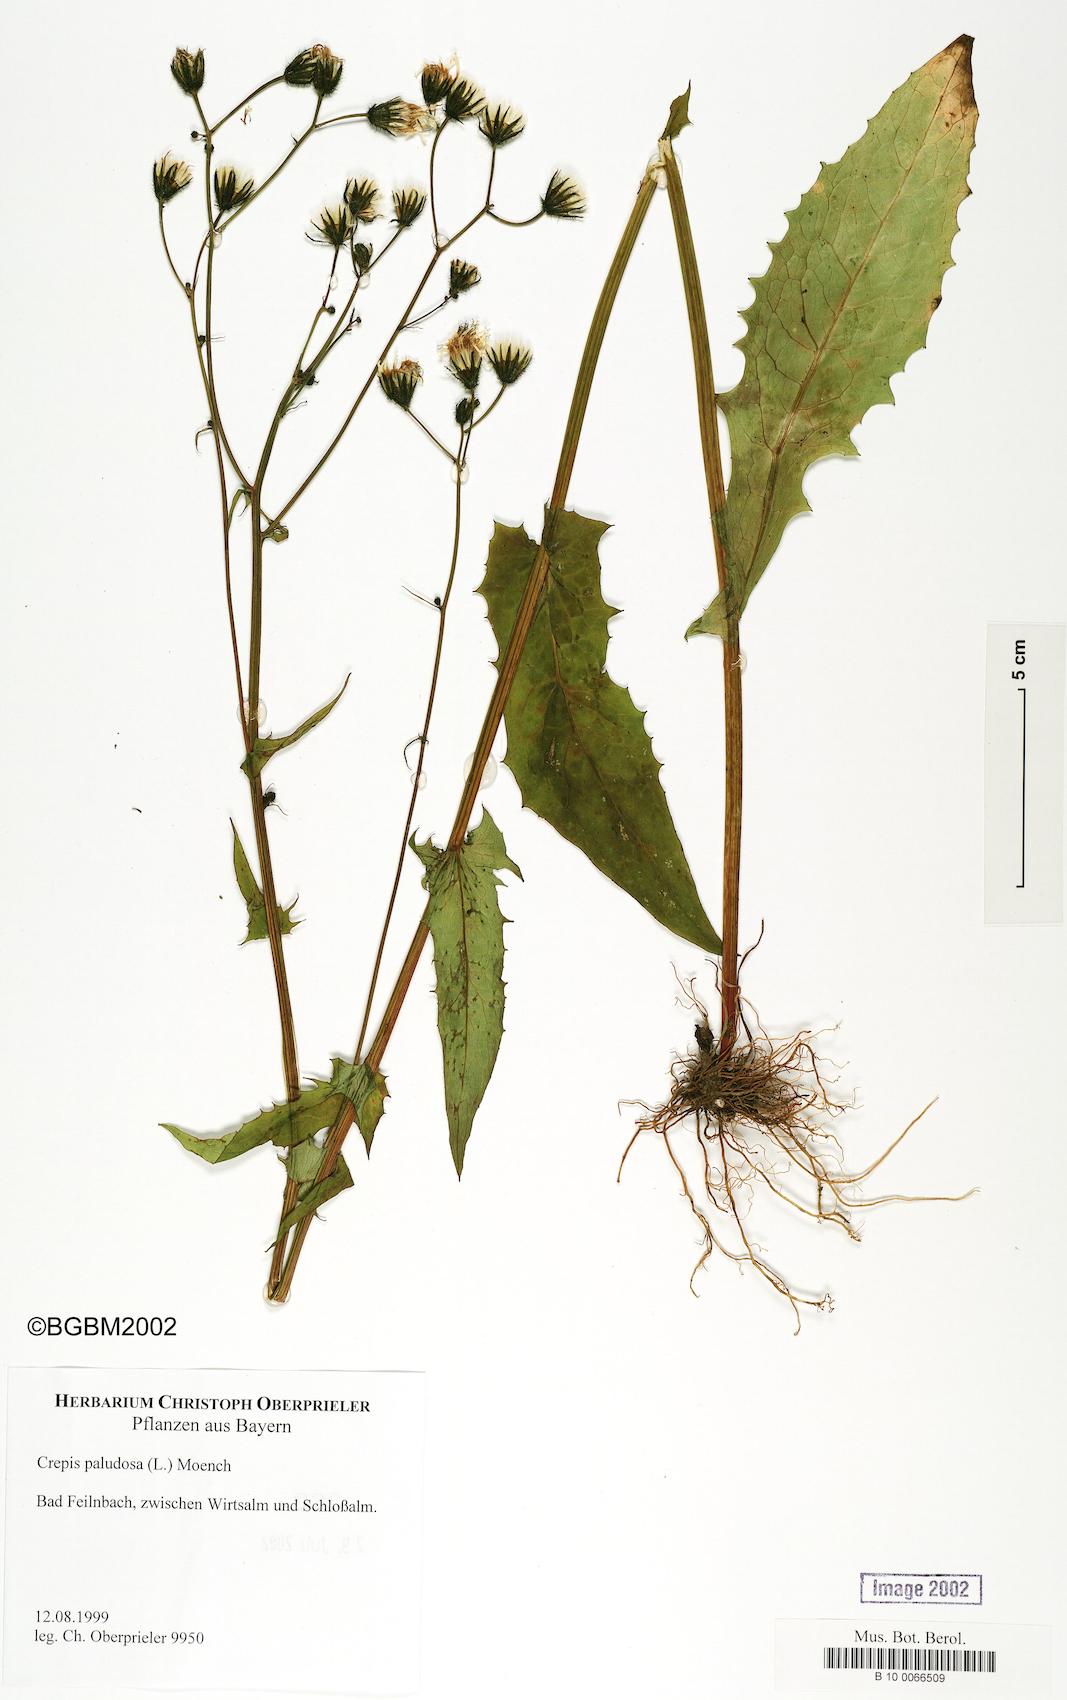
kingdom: Plantae
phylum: Tracheophyta
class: Magnoliopsida
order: Asterales
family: Asteraceae
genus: Crepis
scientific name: Crepis paludosa
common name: Marsh hawk's-beard
